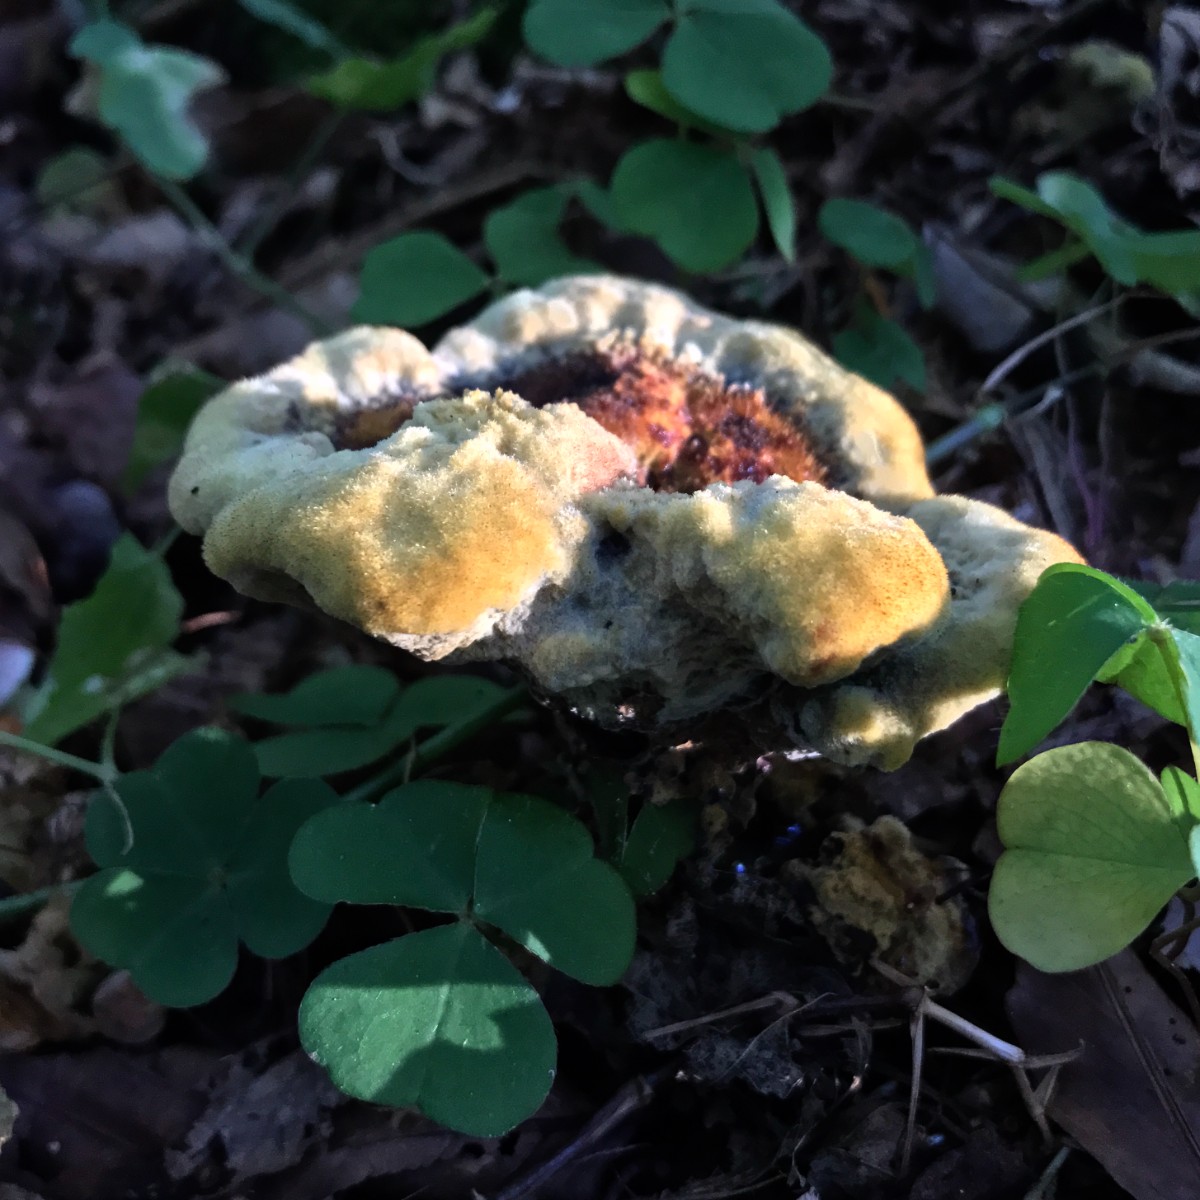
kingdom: Fungi
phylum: Basidiomycota
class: Agaricomycetes
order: Polyporales
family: Laetiporaceae
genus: Phaeolus
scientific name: Phaeolus schweinitzii
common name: brunporesvamp
